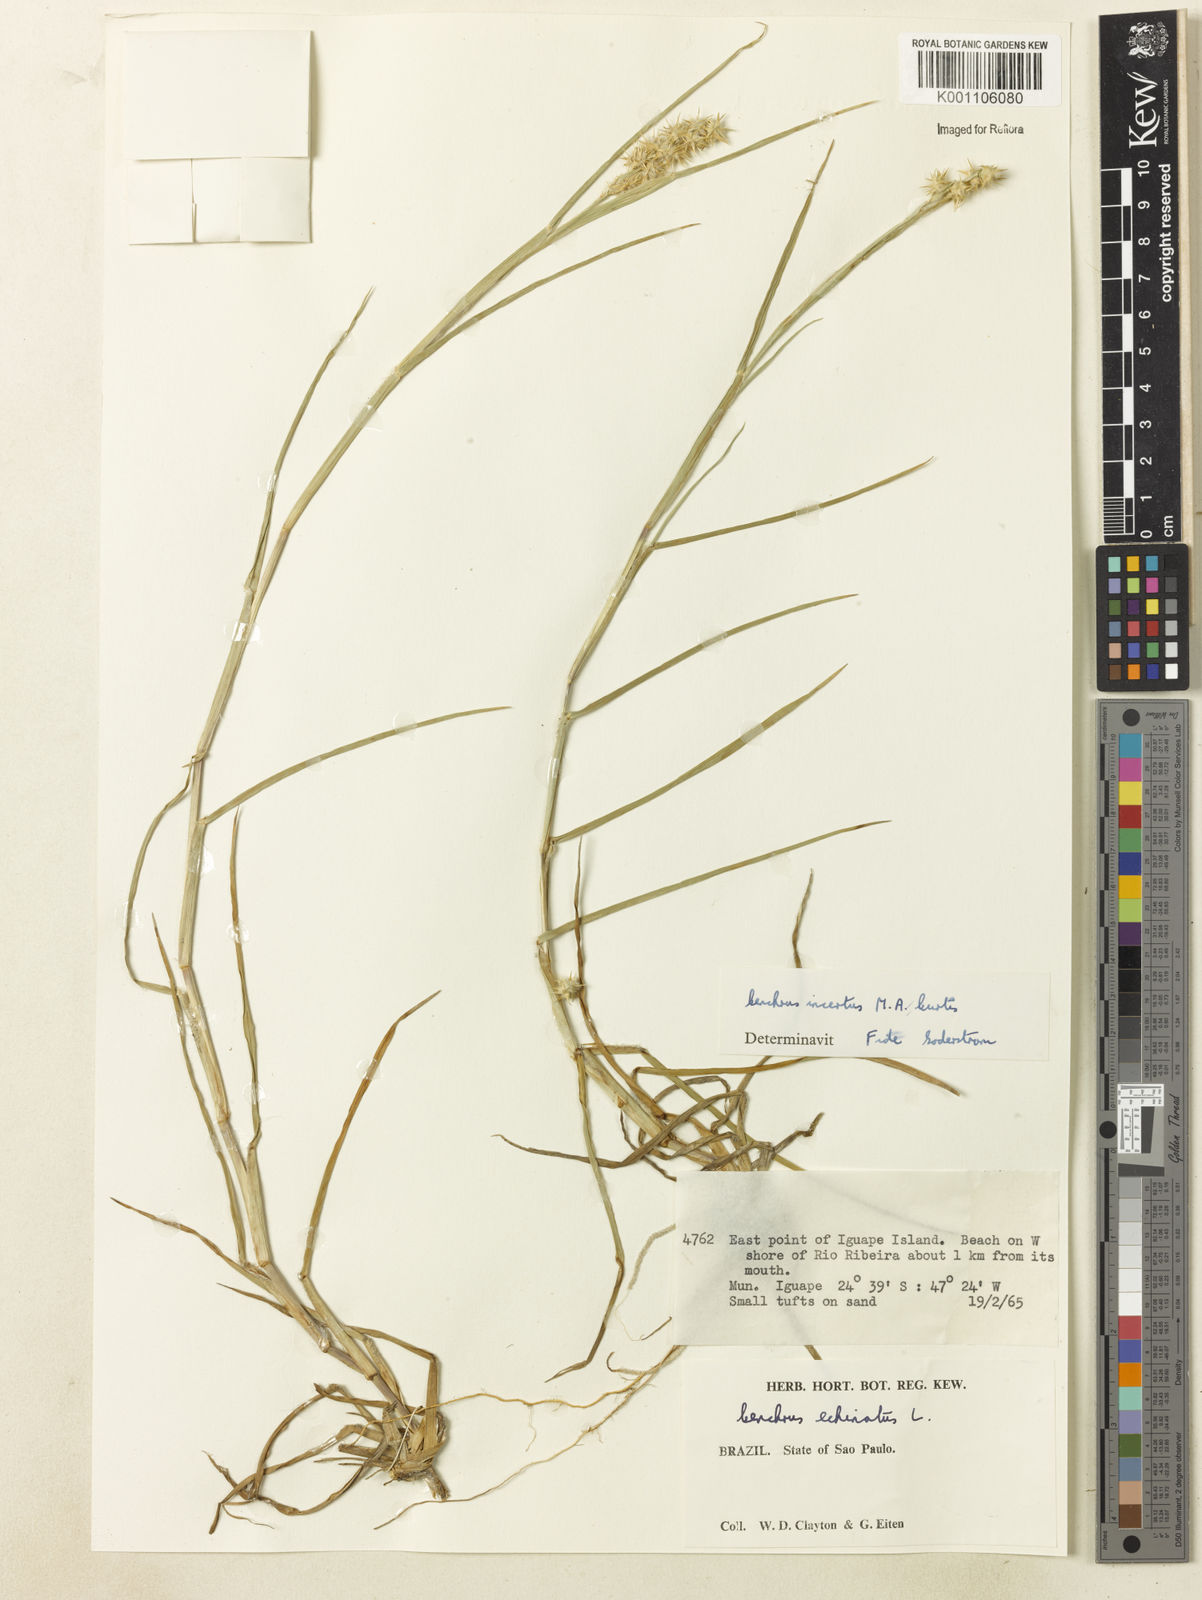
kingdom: Plantae
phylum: Tracheophyta
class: Liliopsida
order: Poales
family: Poaceae
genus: Cenchrus
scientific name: Cenchrus tribuloides
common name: Dune sandbur
